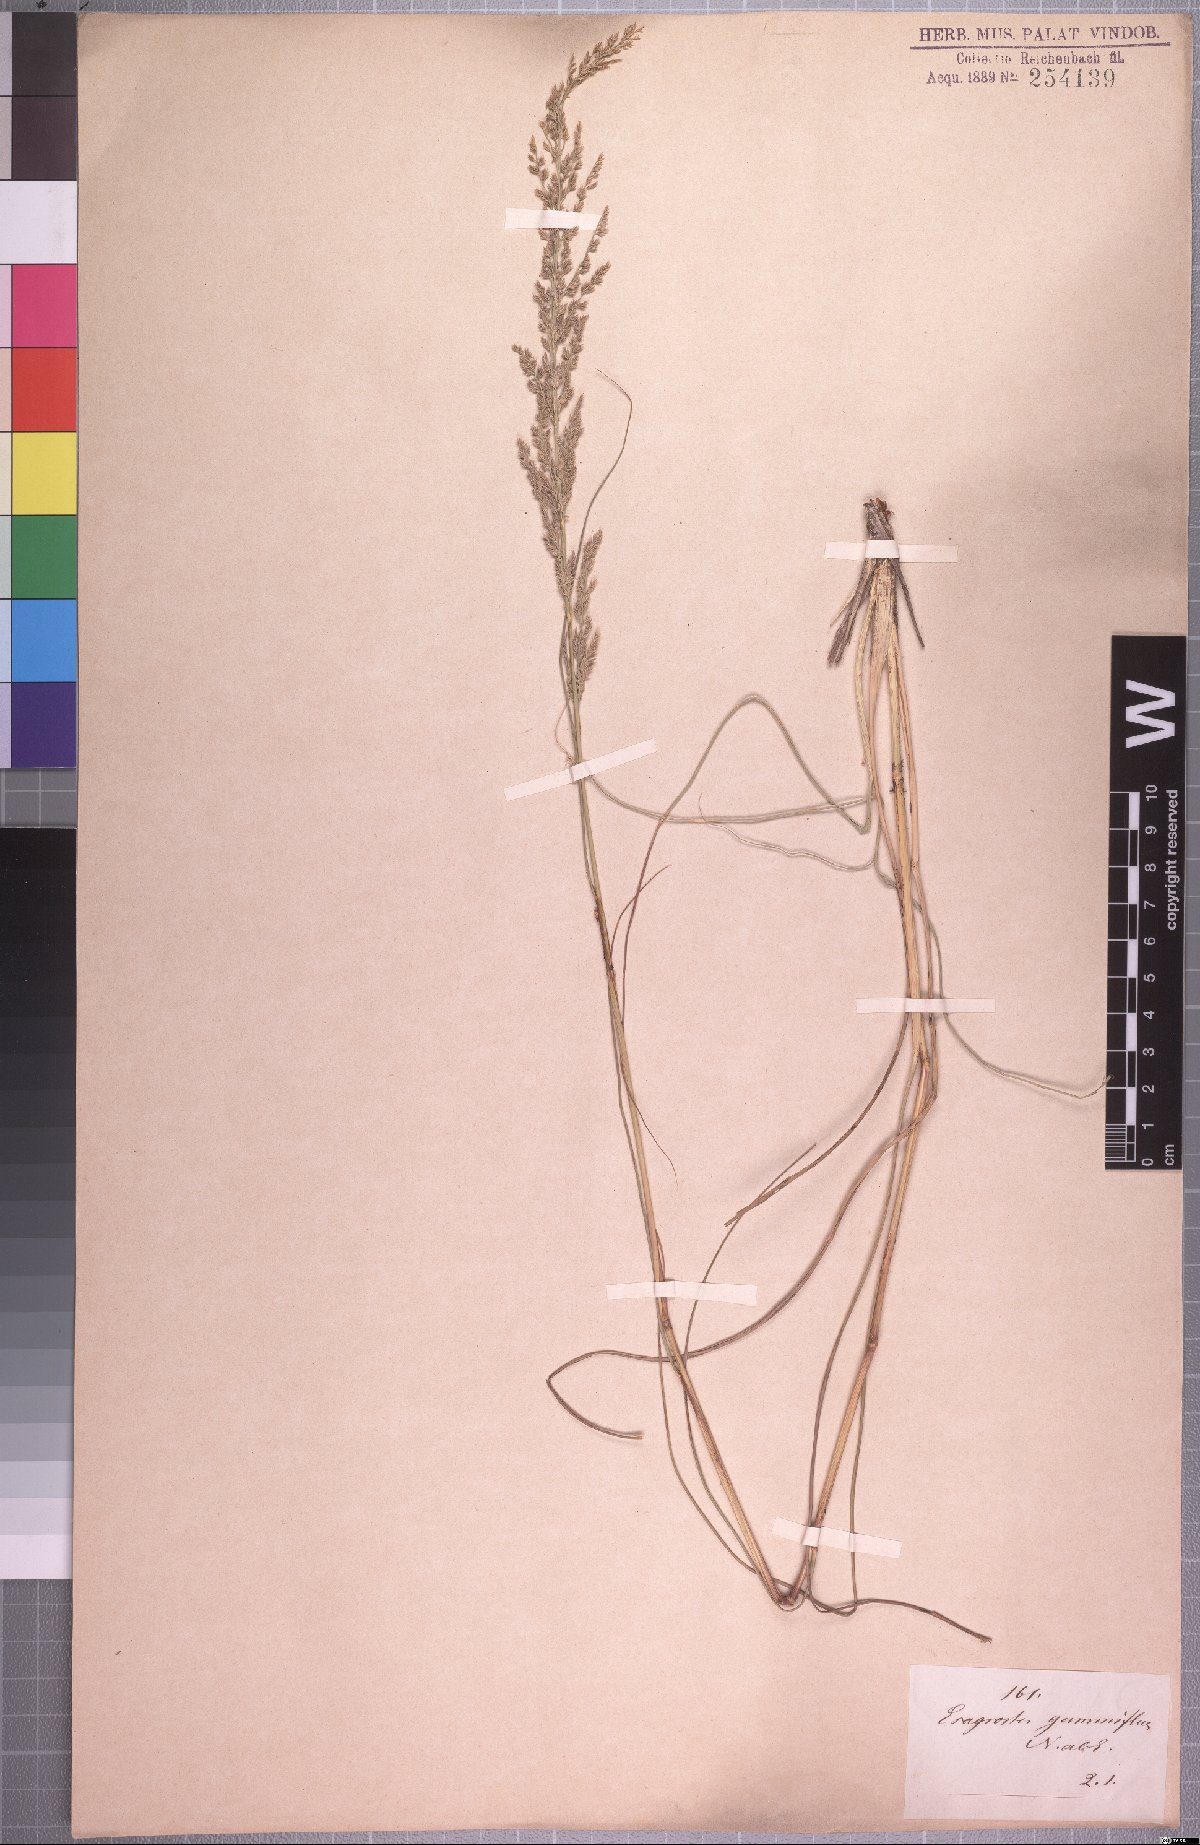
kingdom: Plantae
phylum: Tracheophyta
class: Liliopsida
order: Poales
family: Poaceae
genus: Eragrostis
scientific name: Eragrostis gummiflua
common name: Gum grass
